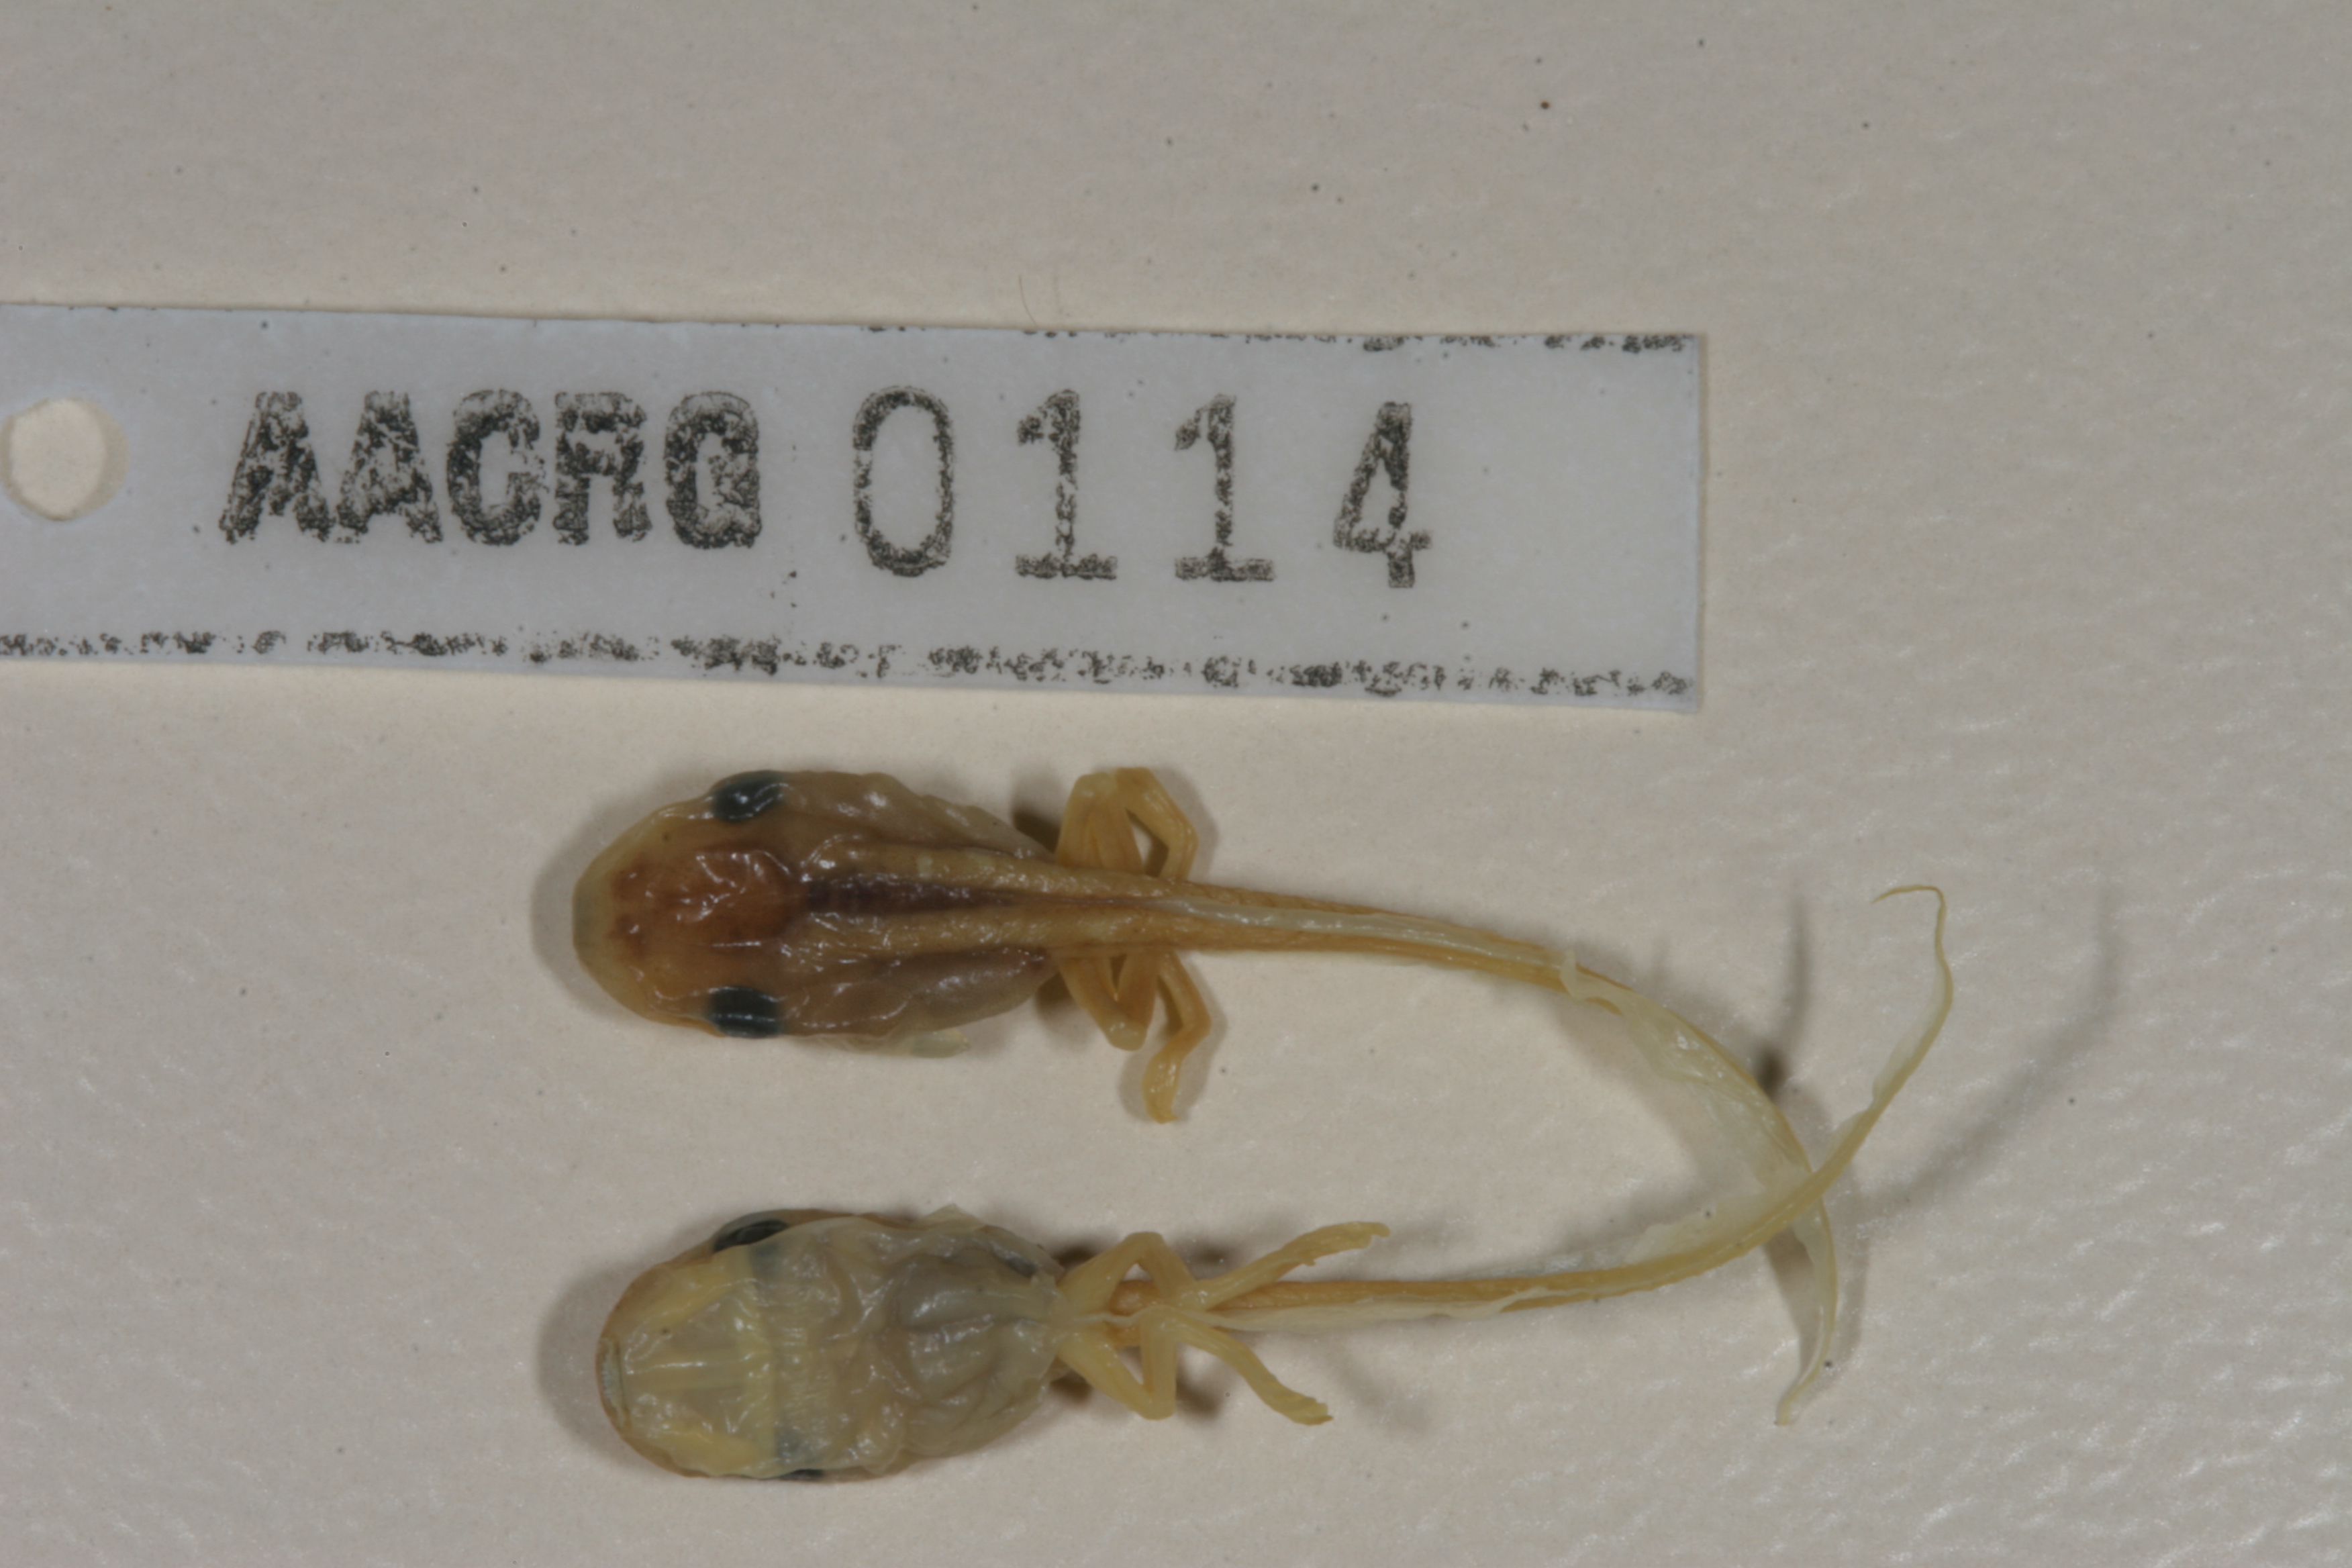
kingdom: Animalia
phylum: Chordata
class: Amphibia
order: Anura
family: Hyperoliidae
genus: Afrixalus
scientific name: Afrixalus delicatus
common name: Delicate leaf-folding frog
